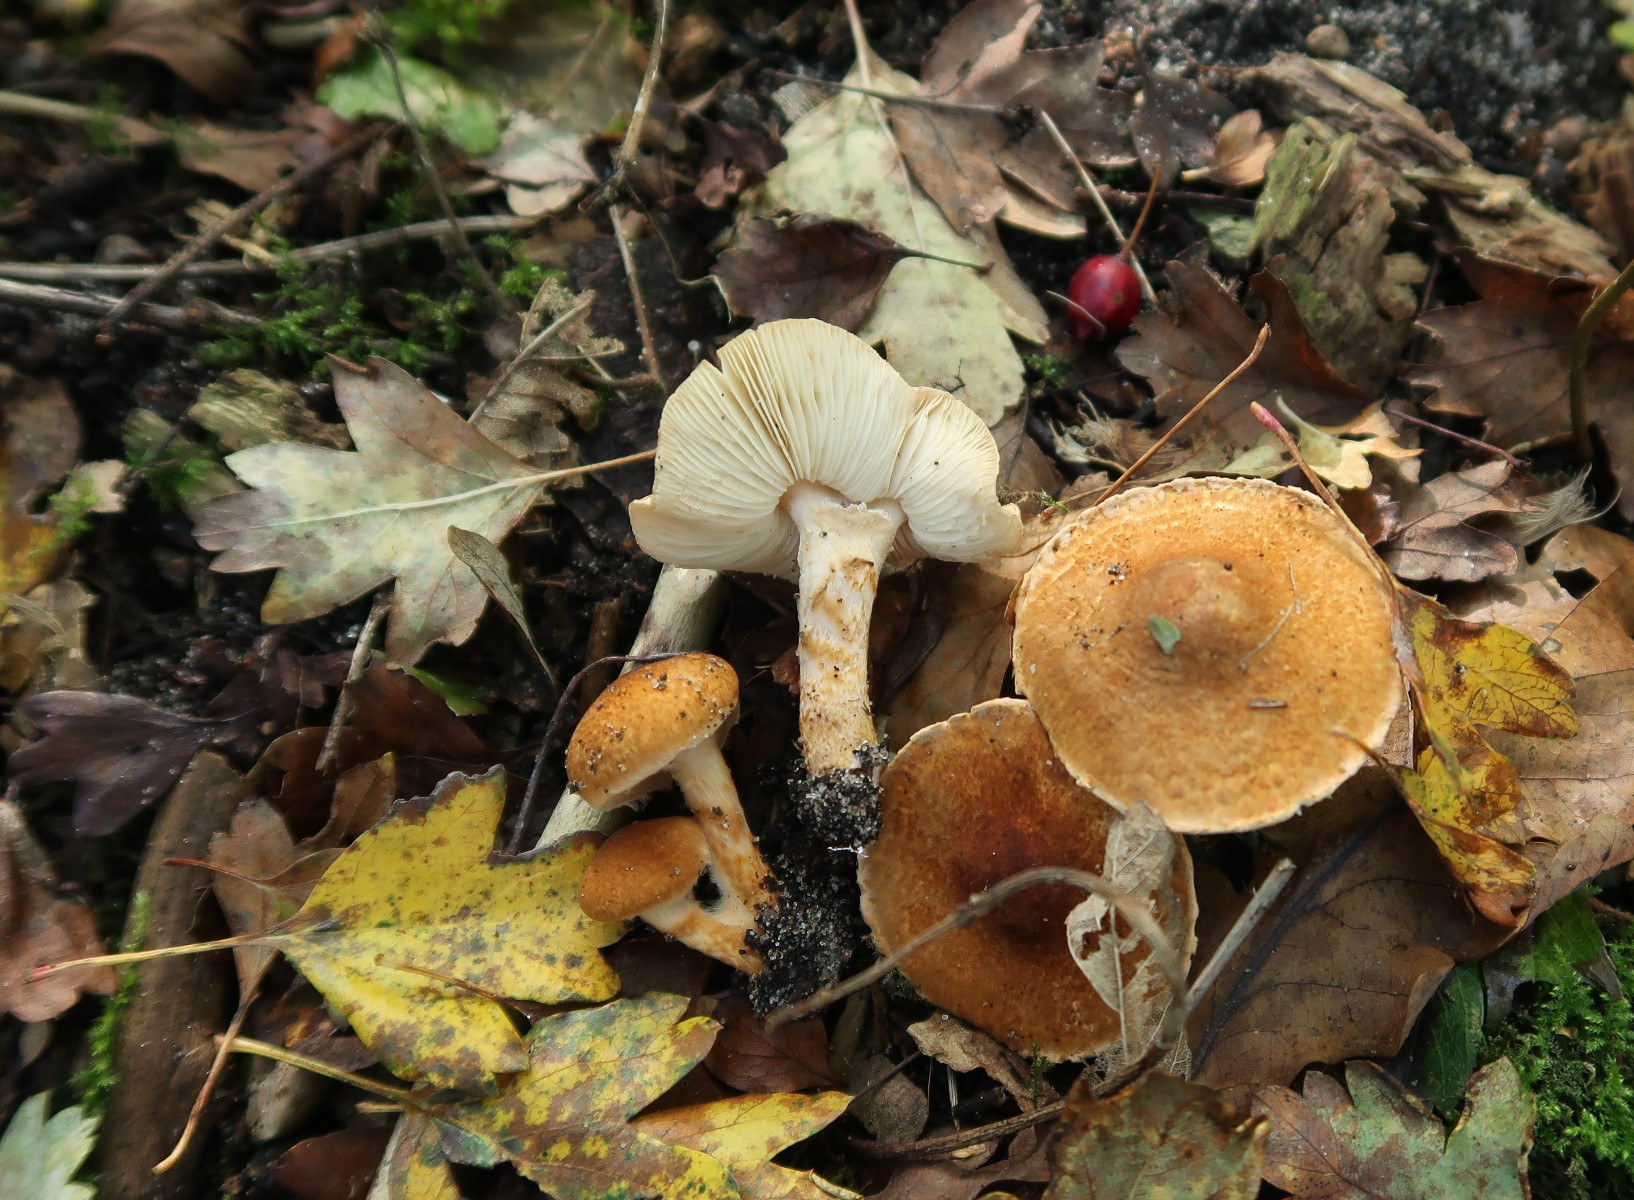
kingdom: Fungi
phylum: Basidiomycota
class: Agaricomycetes
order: Agaricales
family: Agaricaceae
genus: Leucocoprinus
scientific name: Leucocoprinus straminellus
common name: rustbrun parasolhat
